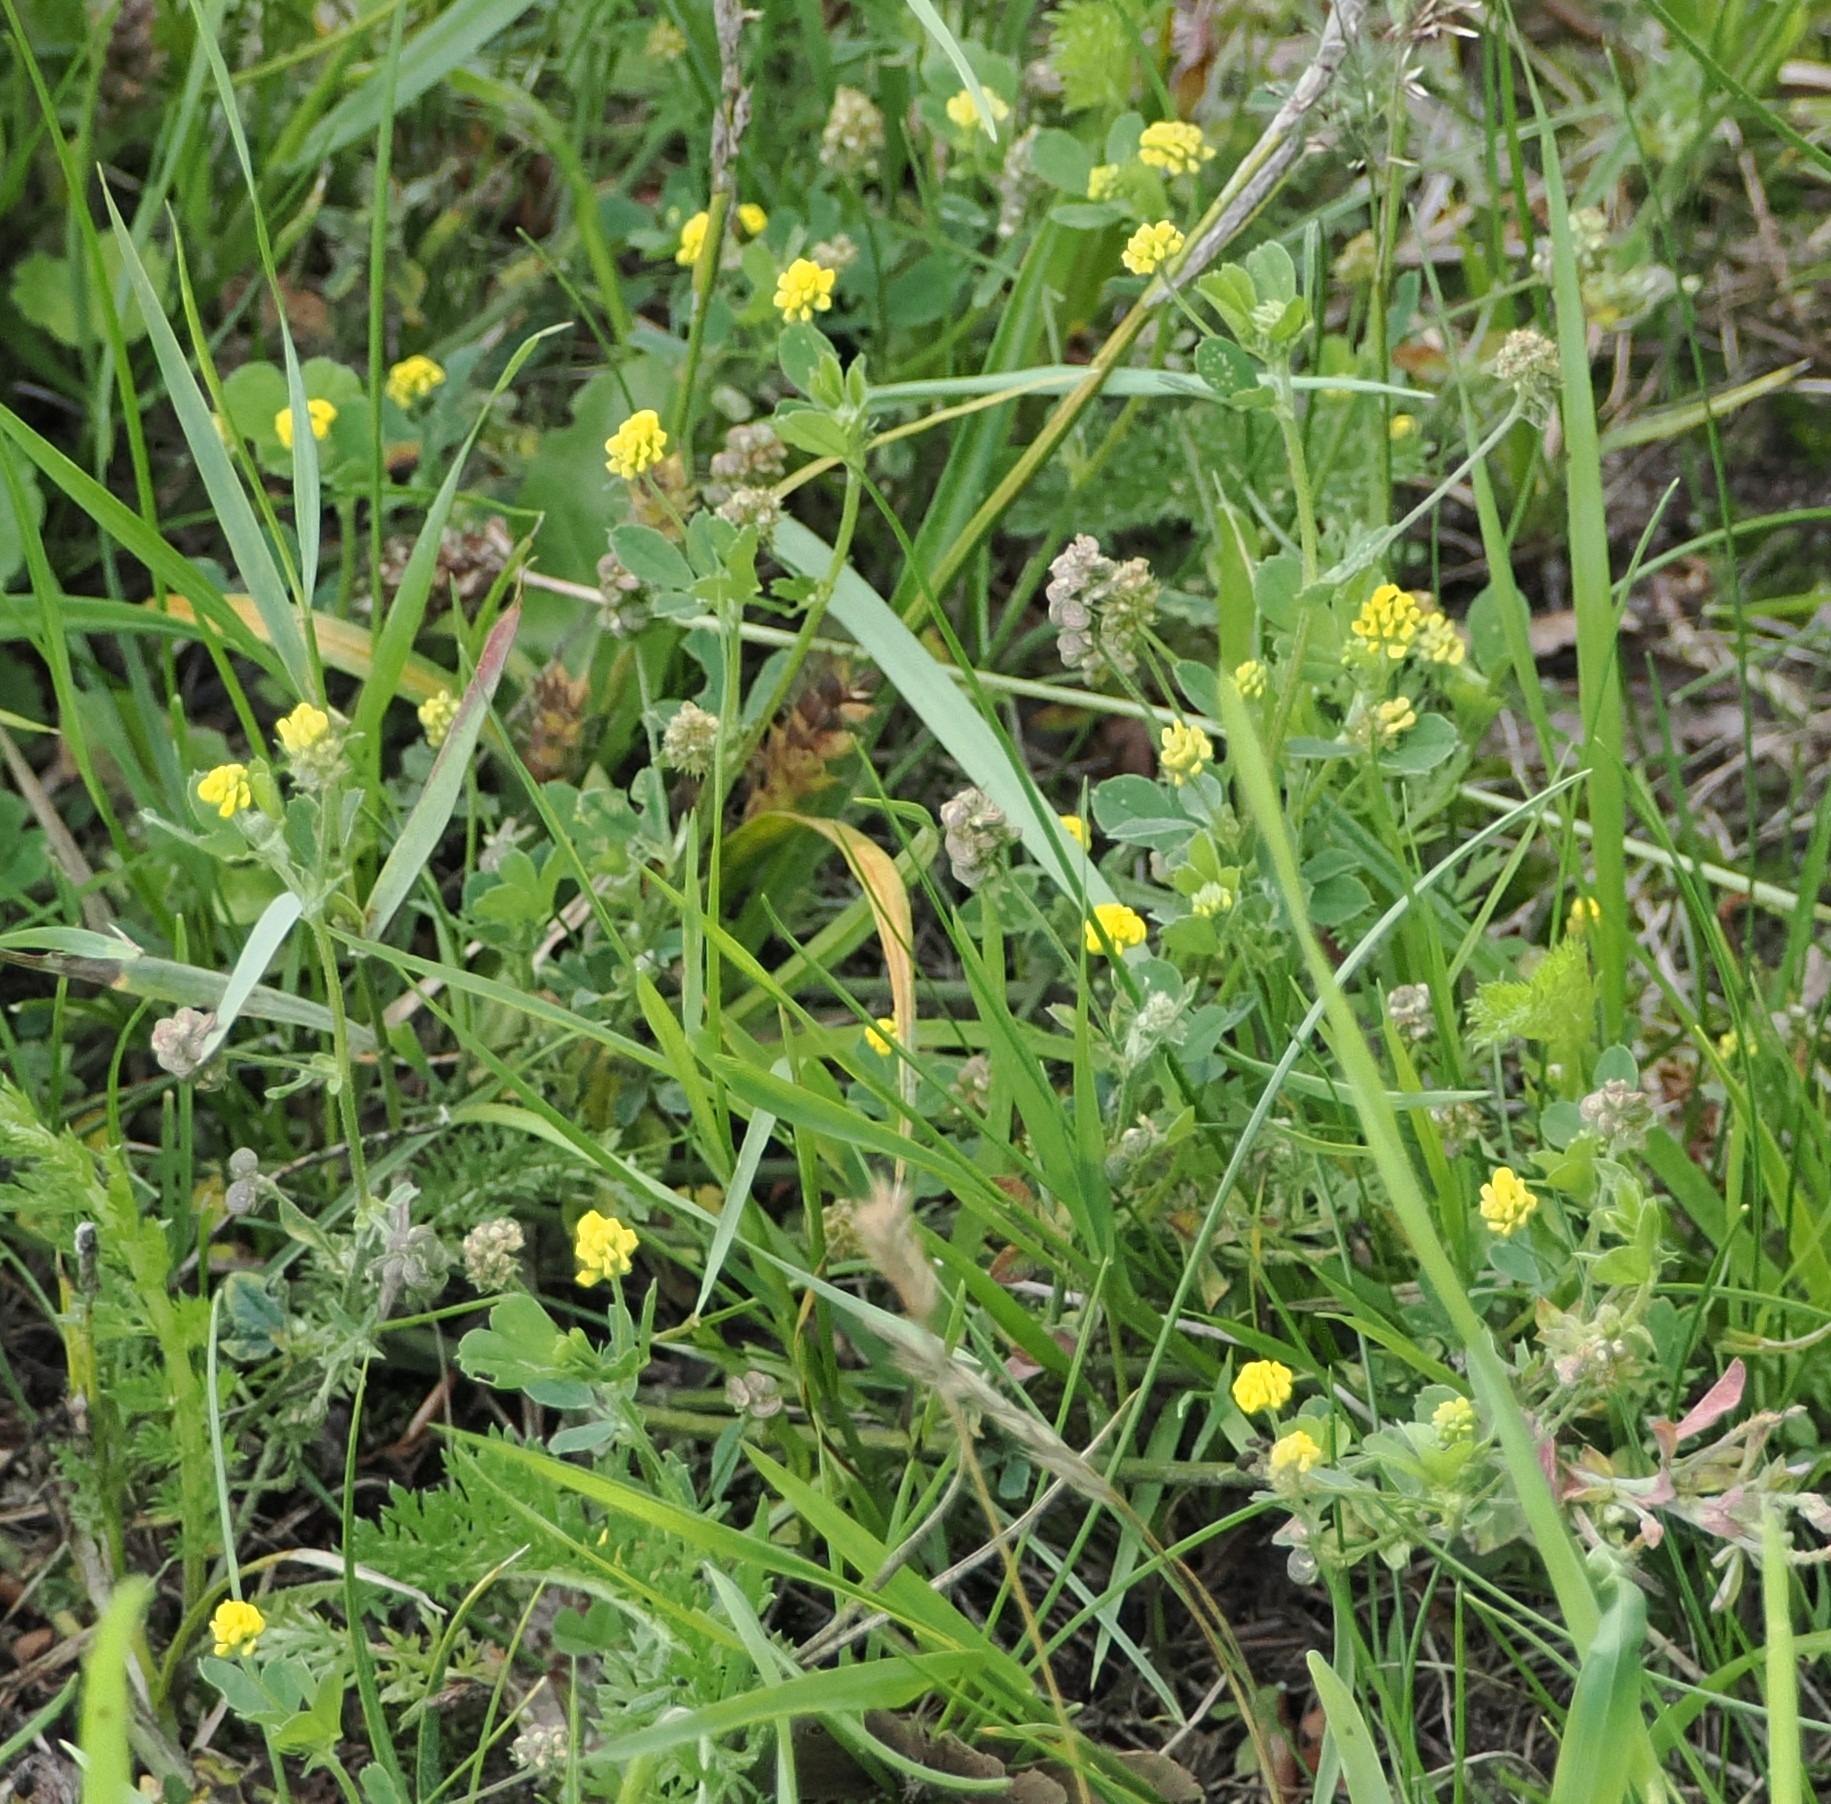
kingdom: Plantae
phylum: Tracheophyta
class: Magnoliopsida
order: Fabales
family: Fabaceae
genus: Medicago
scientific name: Medicago lupulina
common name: Humle-sneglebælg
